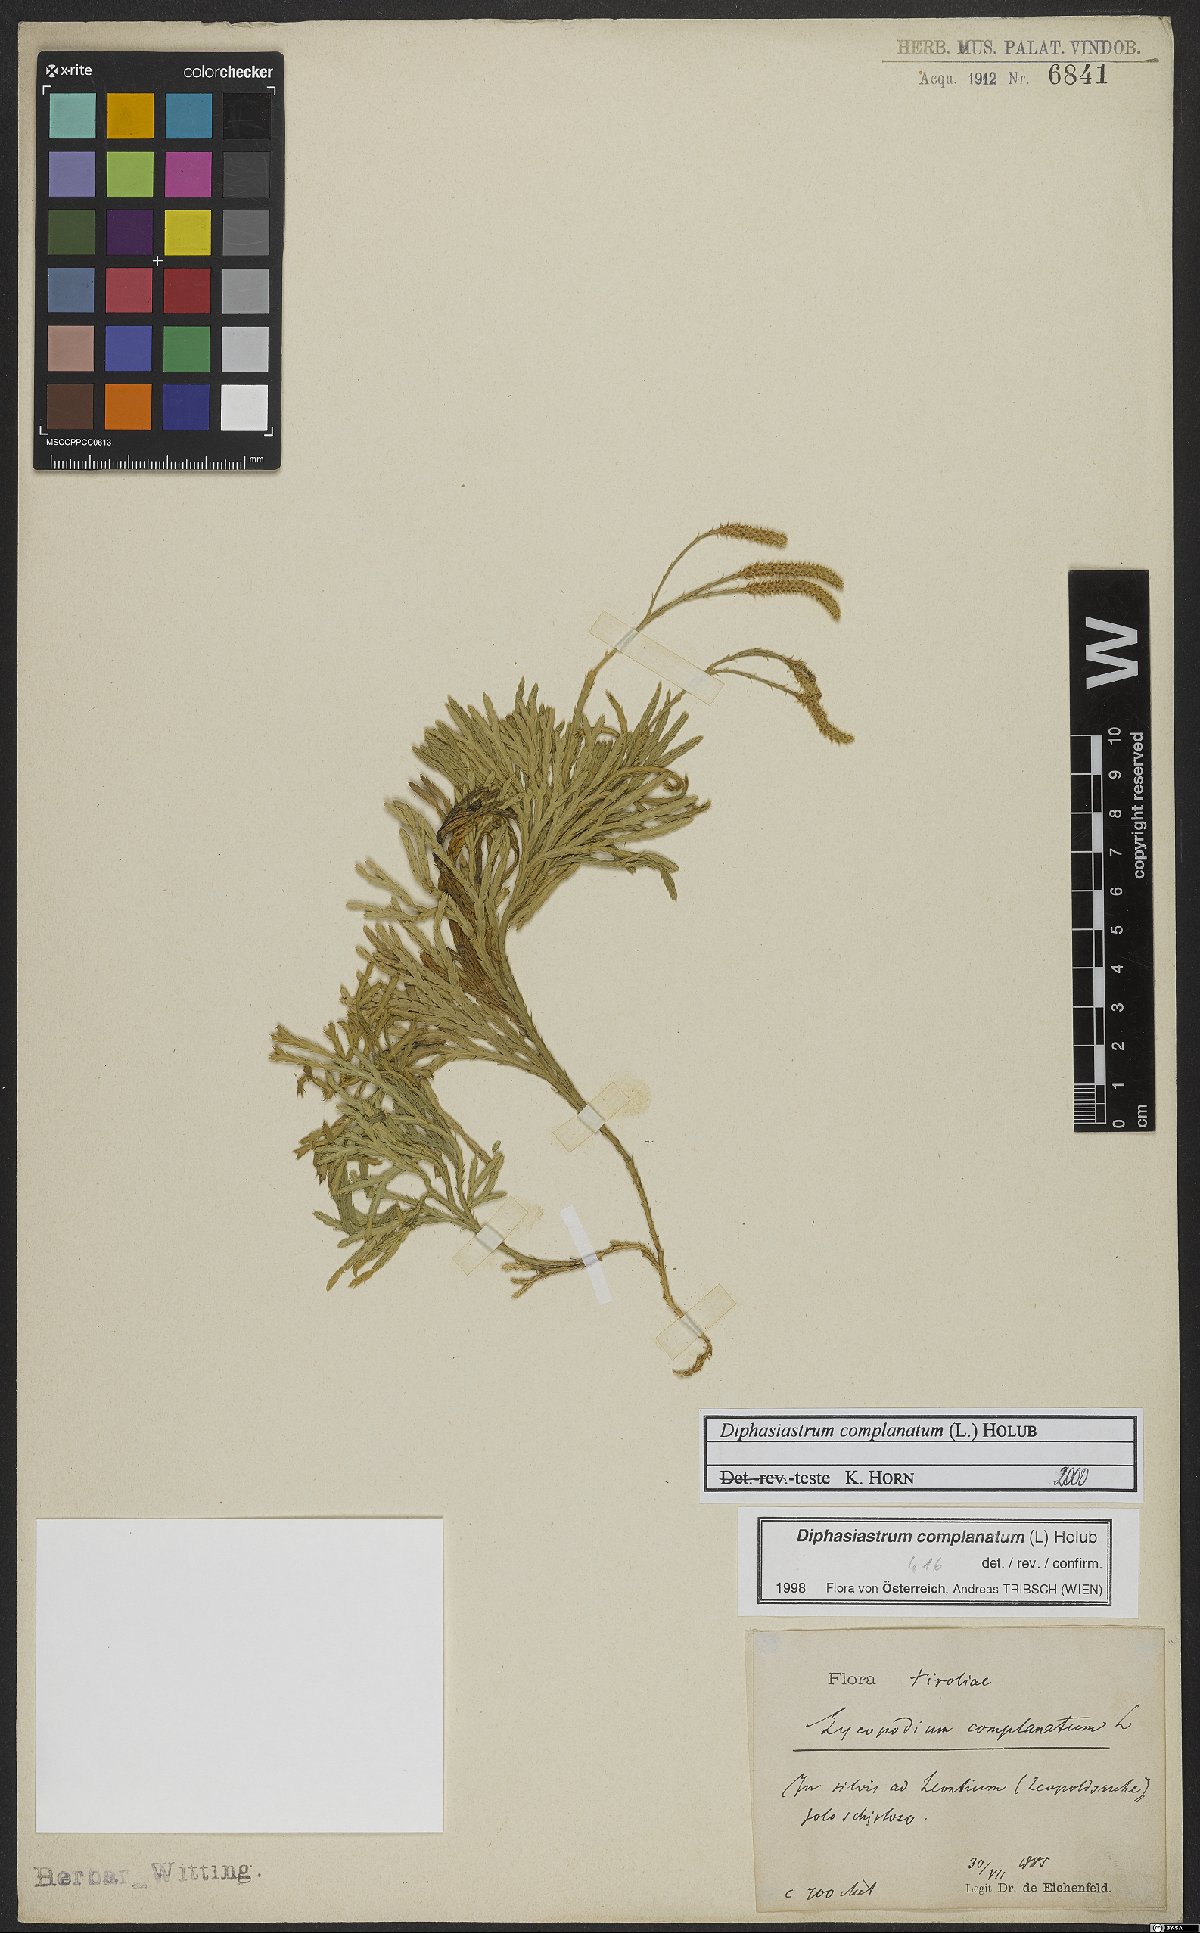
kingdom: Plantae
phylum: Tracheophyta
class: Lycopodiopsida
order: Lycopodiales
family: Lycopodiaceae
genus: Diphasiastrum
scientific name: Diphasiastrum complanatum
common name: Northern running-pine
